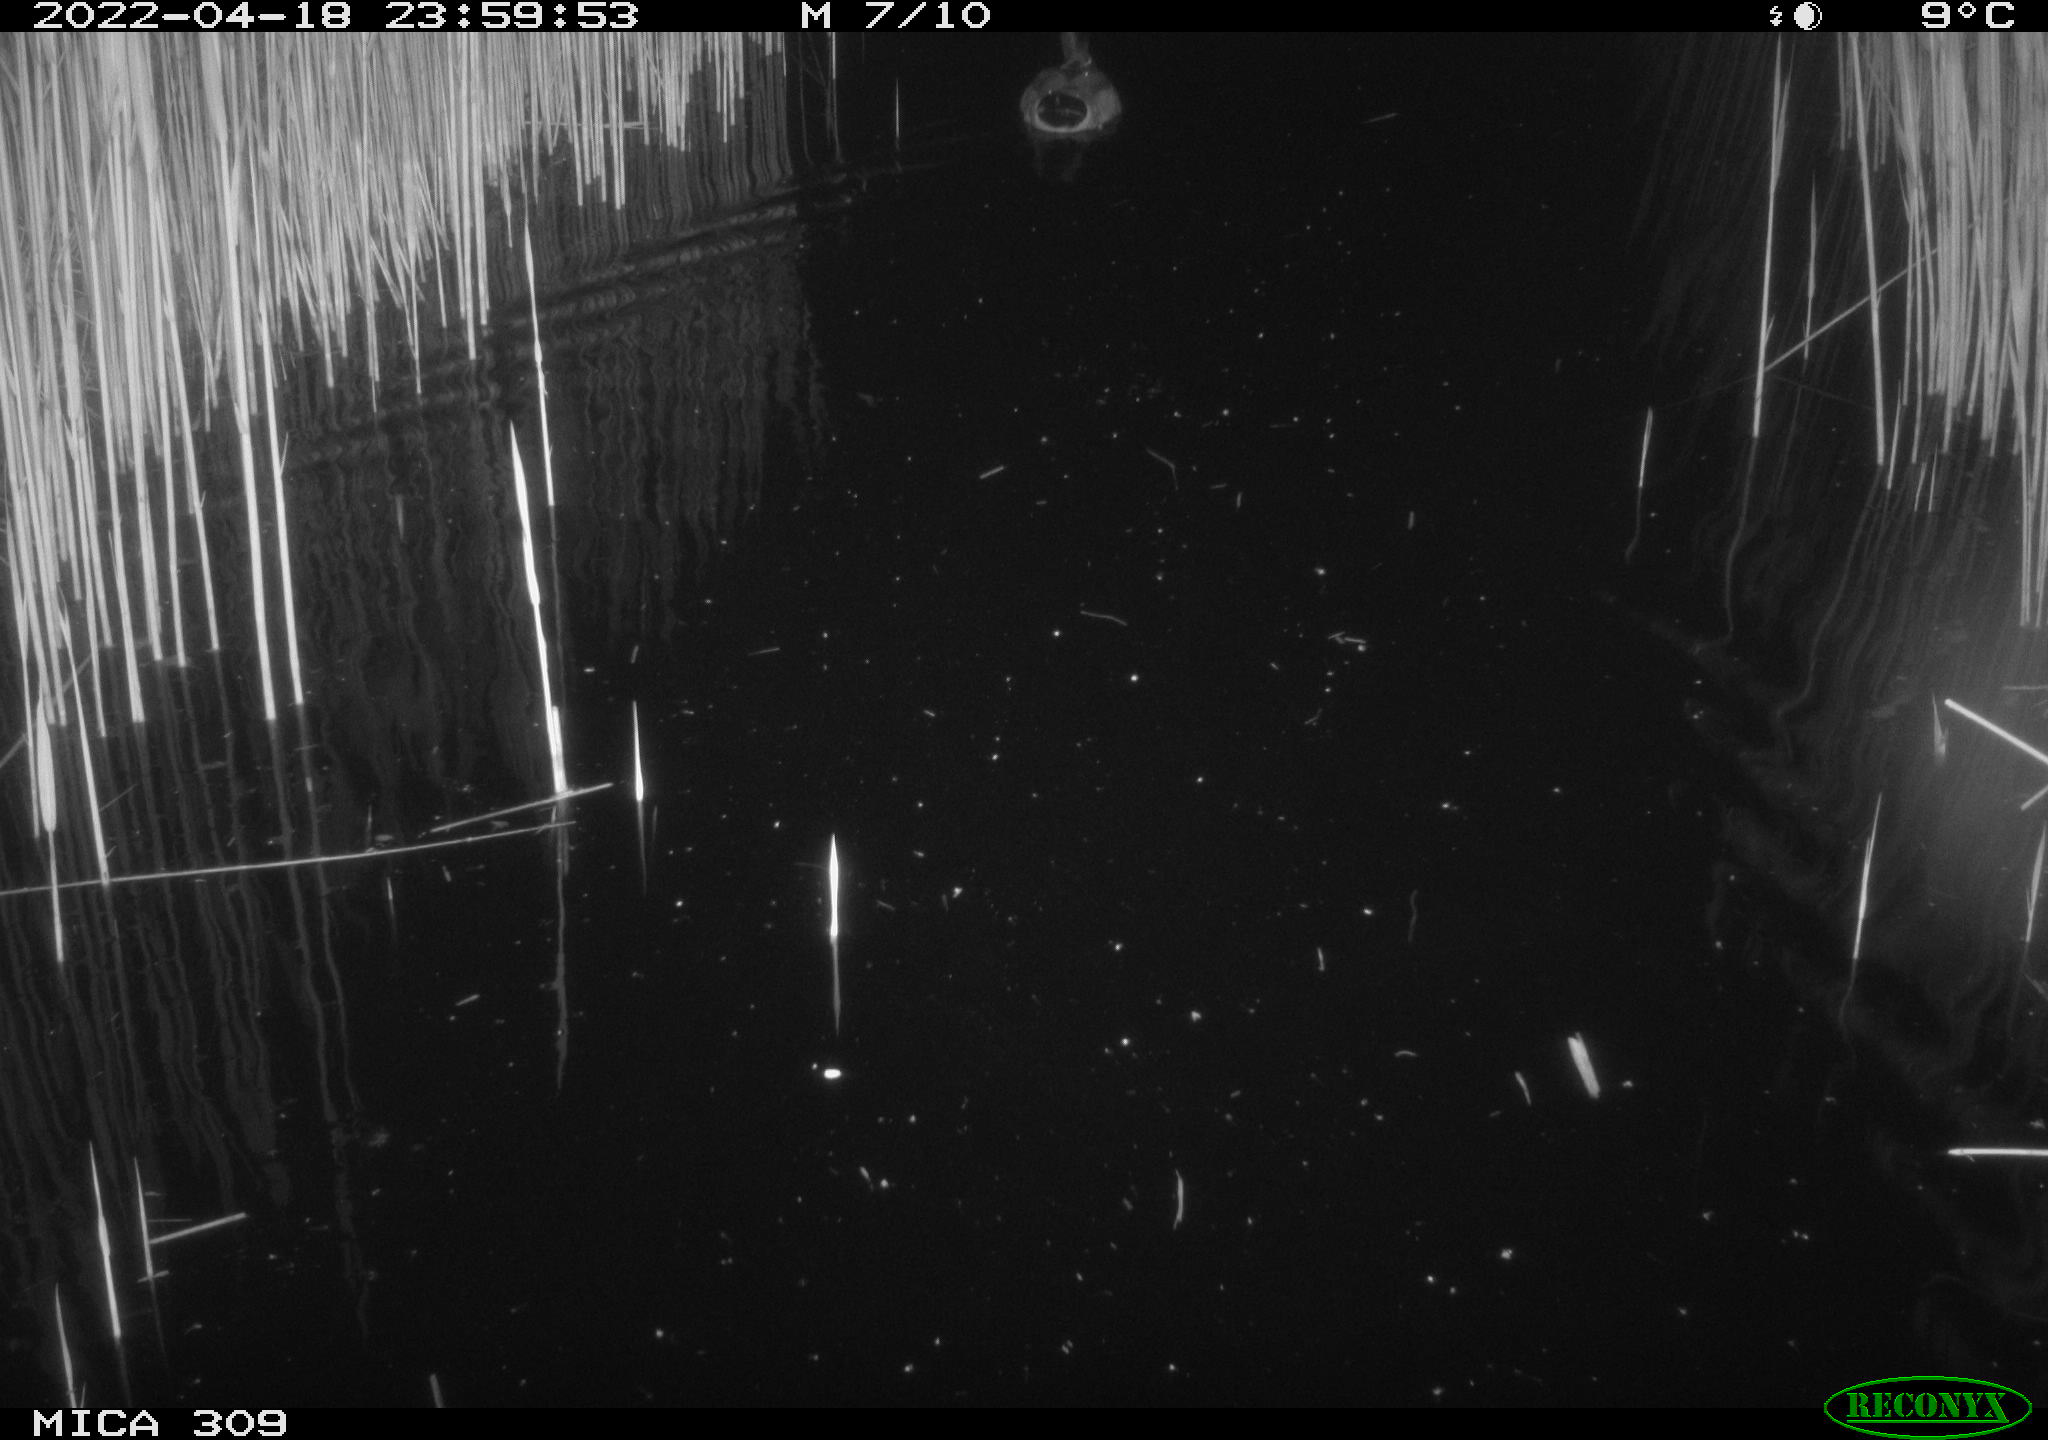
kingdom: Animalia
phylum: Chordata
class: Aves
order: Anseriformes
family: Anatidae
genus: Anas
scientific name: Anas platyrhynchos
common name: Mallard
